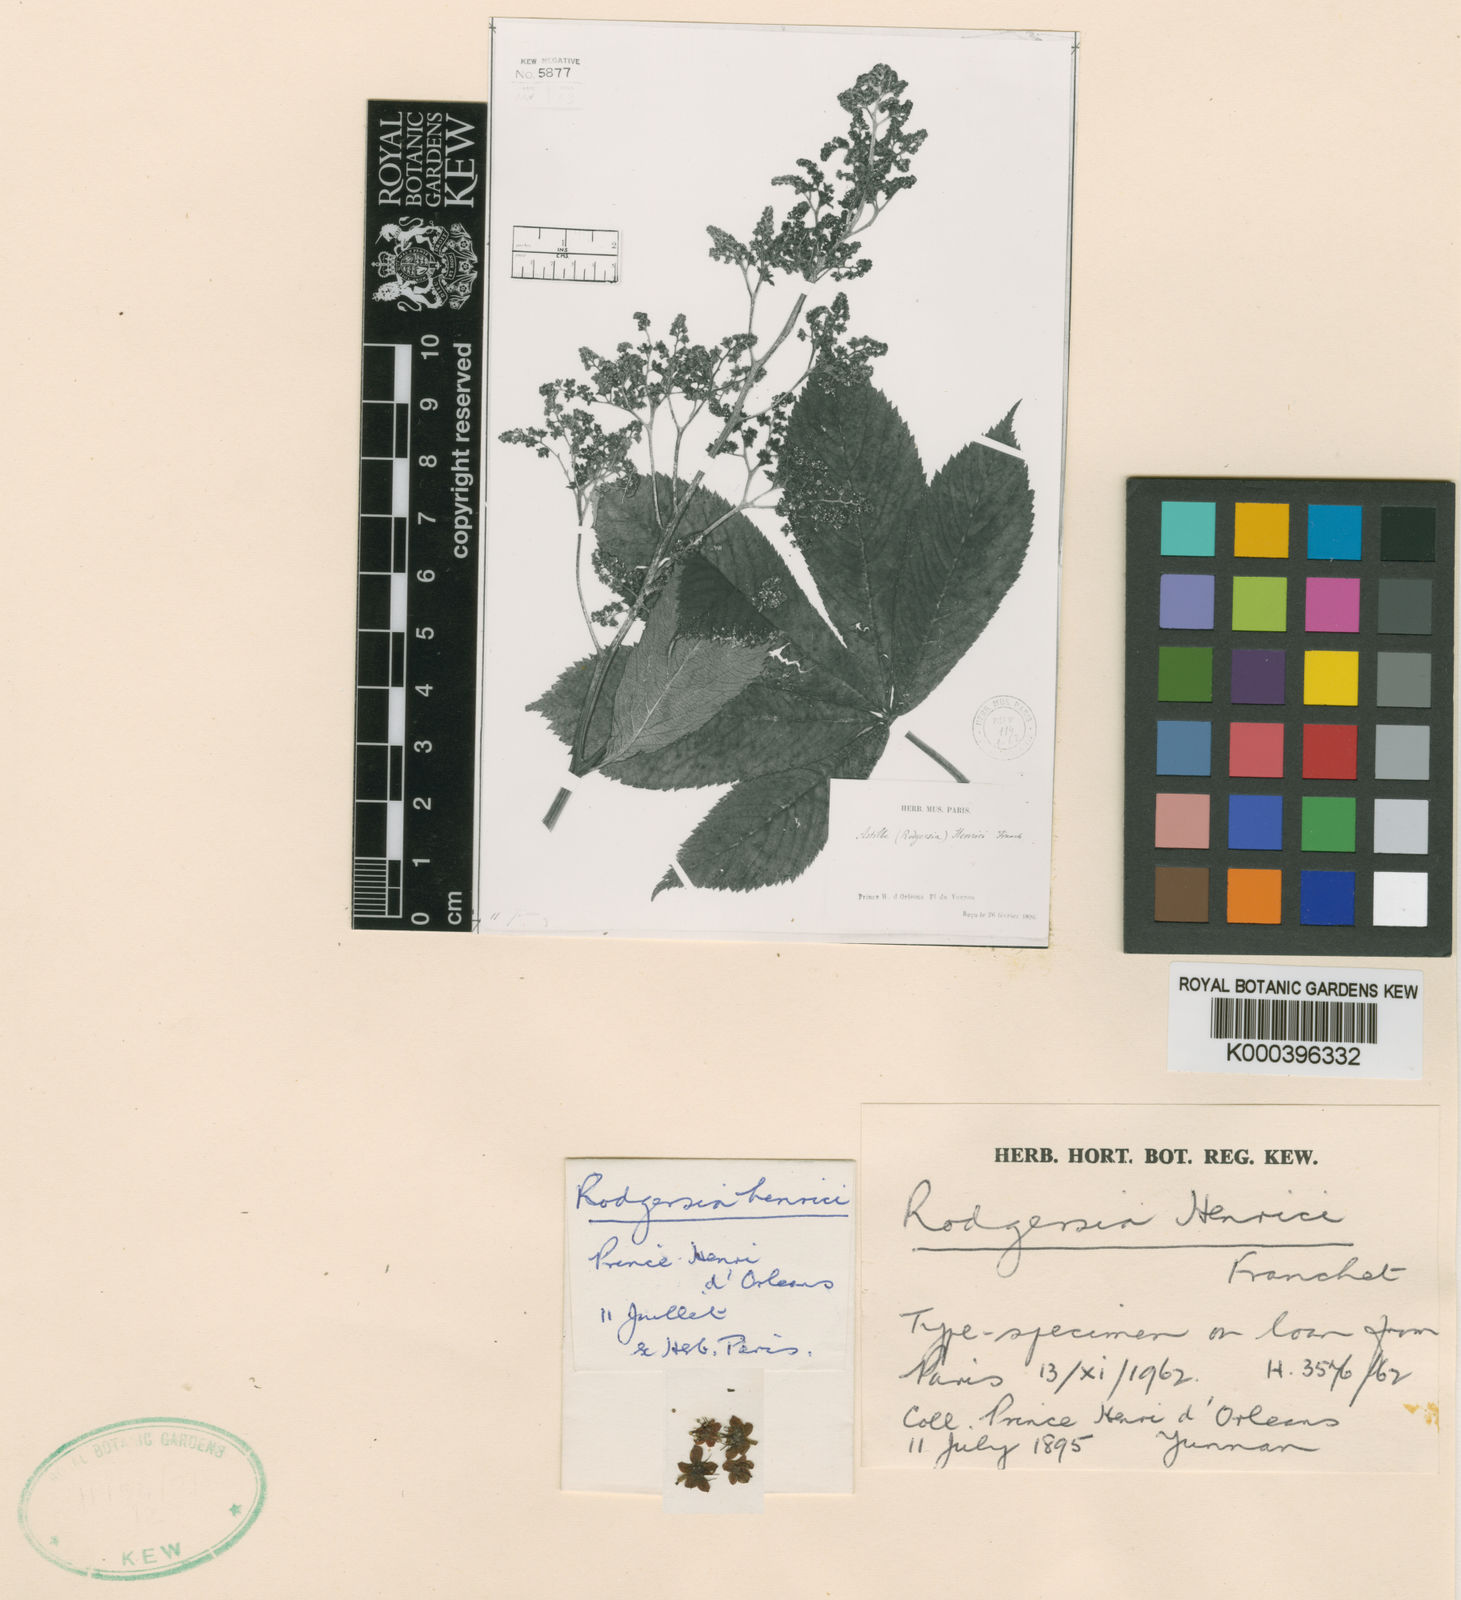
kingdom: Plantae
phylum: Tracheophyta
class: Magnoliopsida
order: Saxifragales
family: Saxifragaceae
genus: Rodgersia
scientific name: Rodgersia aesculifolia
